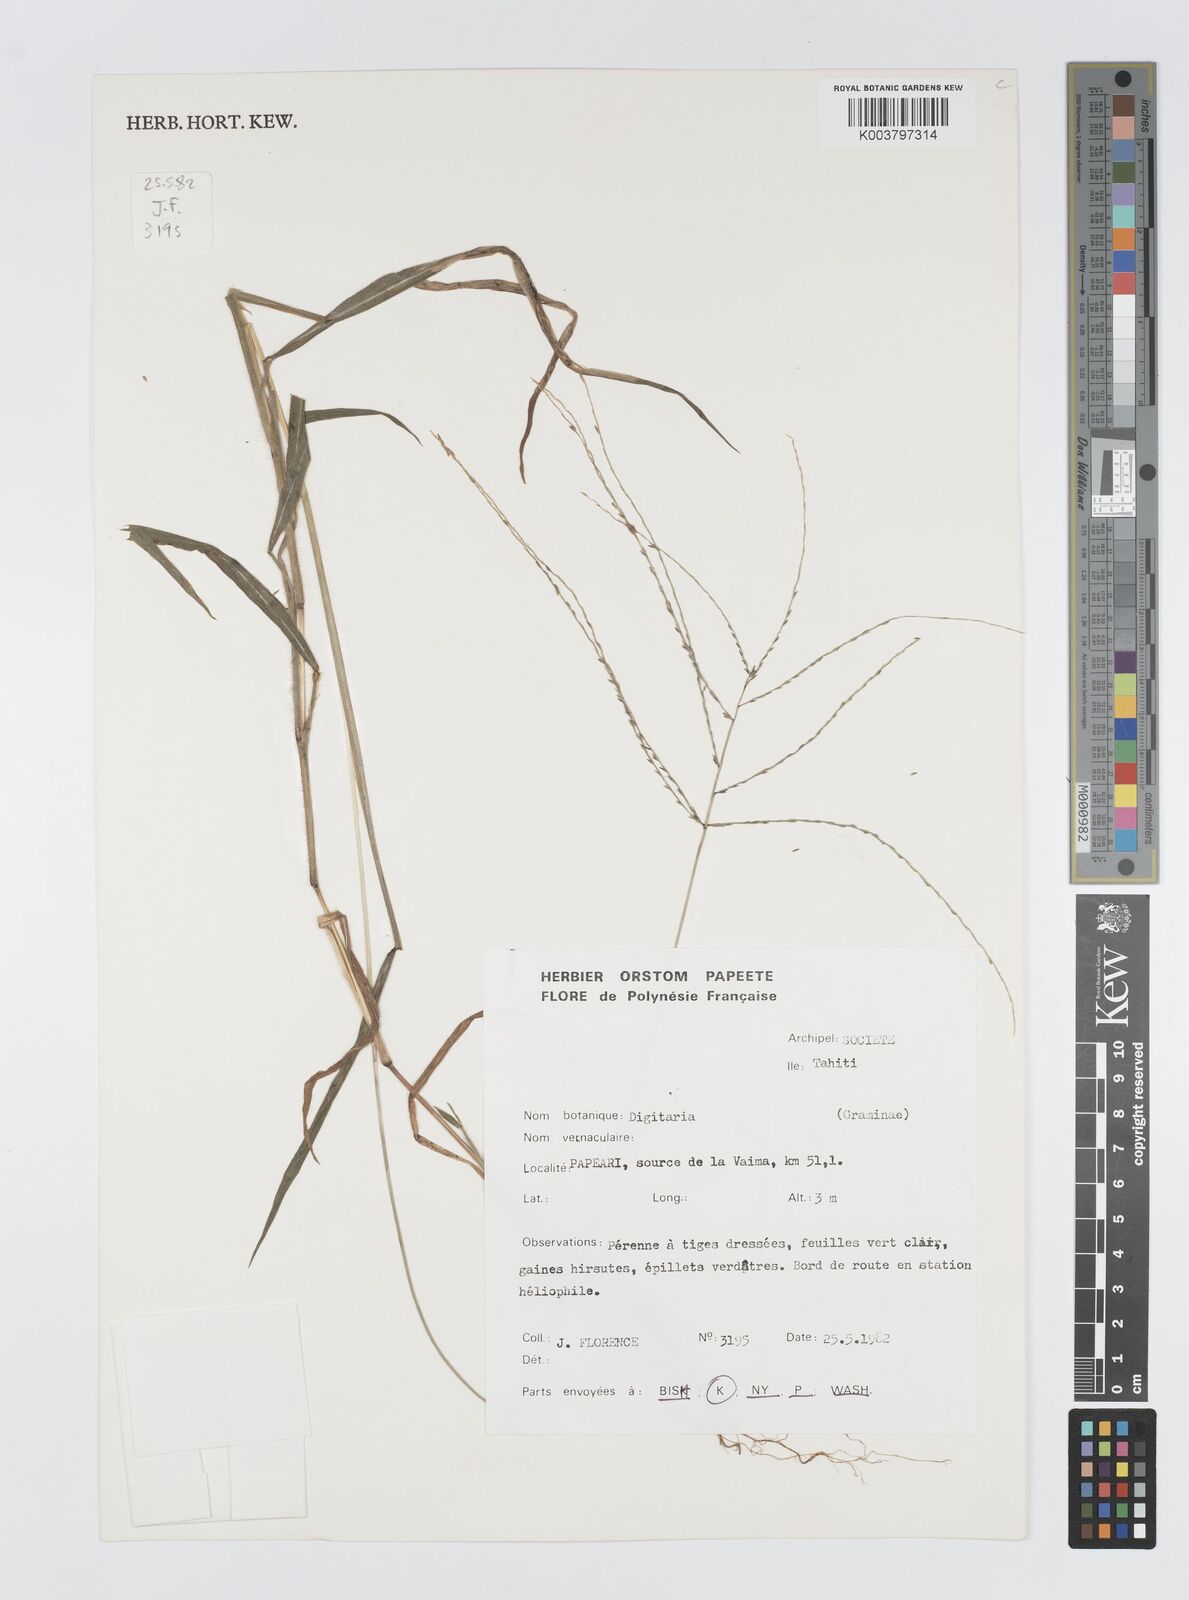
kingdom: Plantae
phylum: Tracheophyta
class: Liliopsida
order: Poales
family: Poaceae
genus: Digitaria
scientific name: Digitaria horizontalis
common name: Jamaican crabgrass
